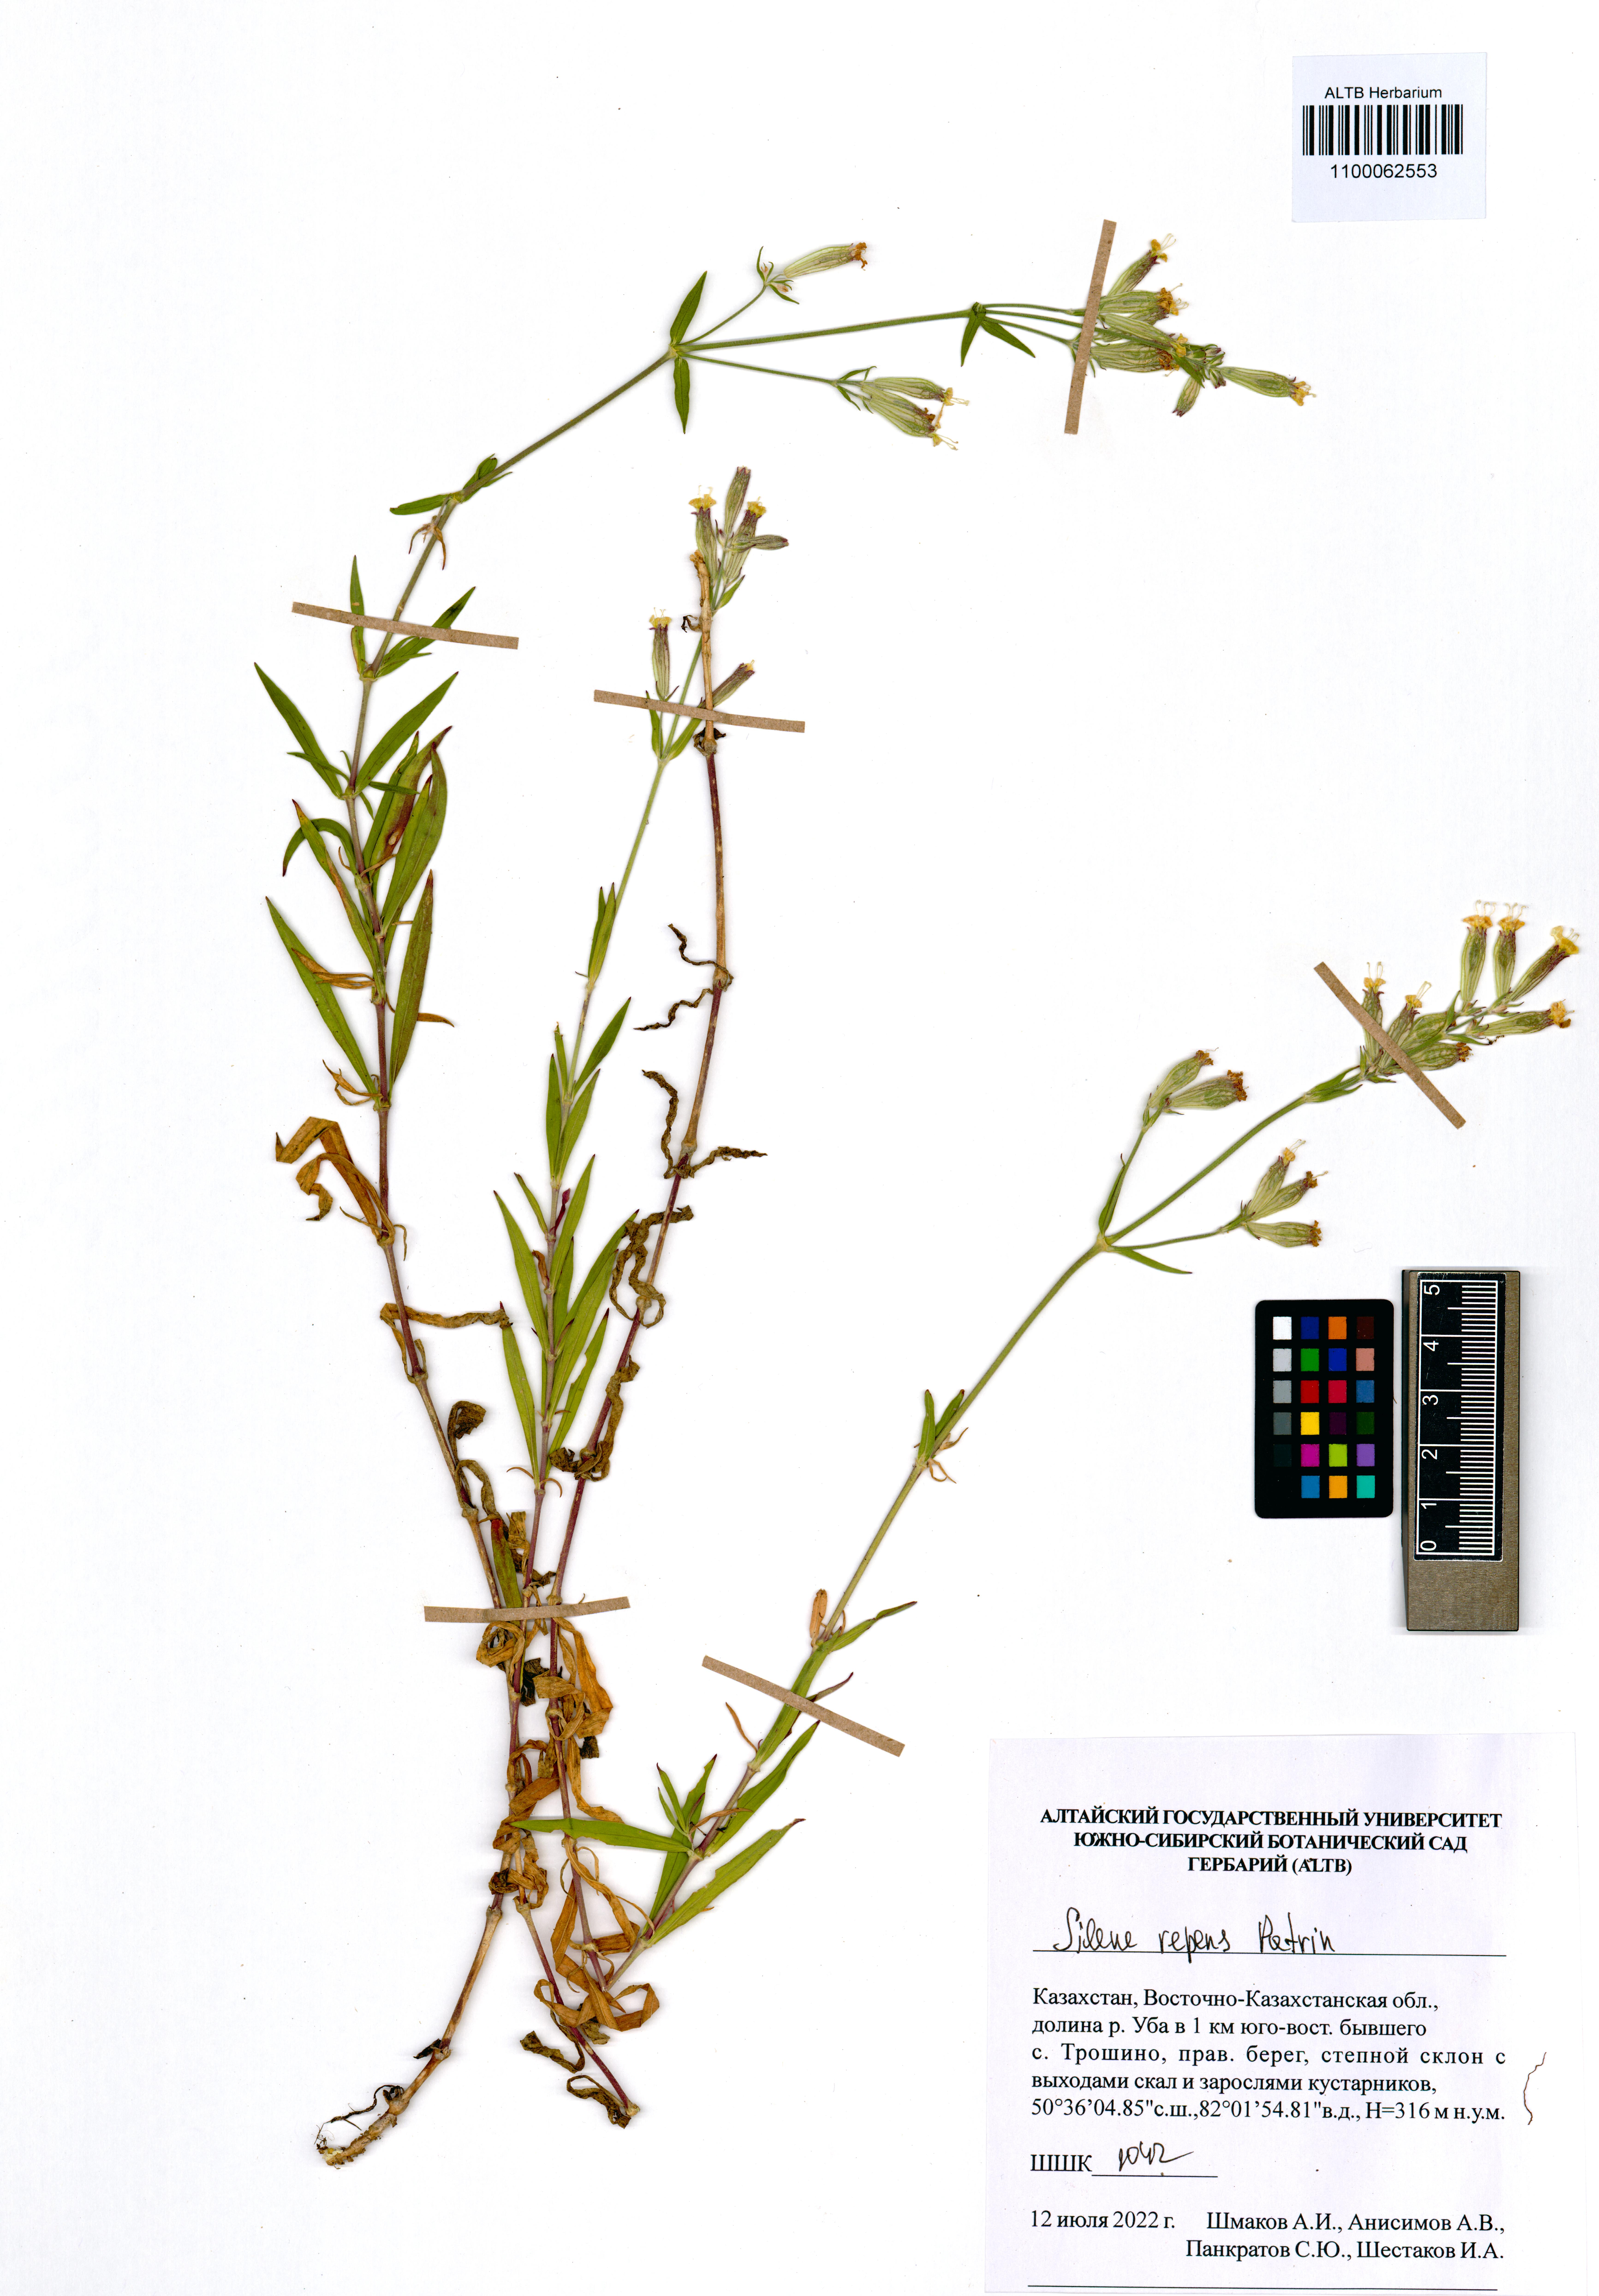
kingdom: Plantae
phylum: Tracheophyta
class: Magnoliopsida
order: Caryophyllales
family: Caryophyllaceae
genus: Silene
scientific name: Silene repens
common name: Pink campion
